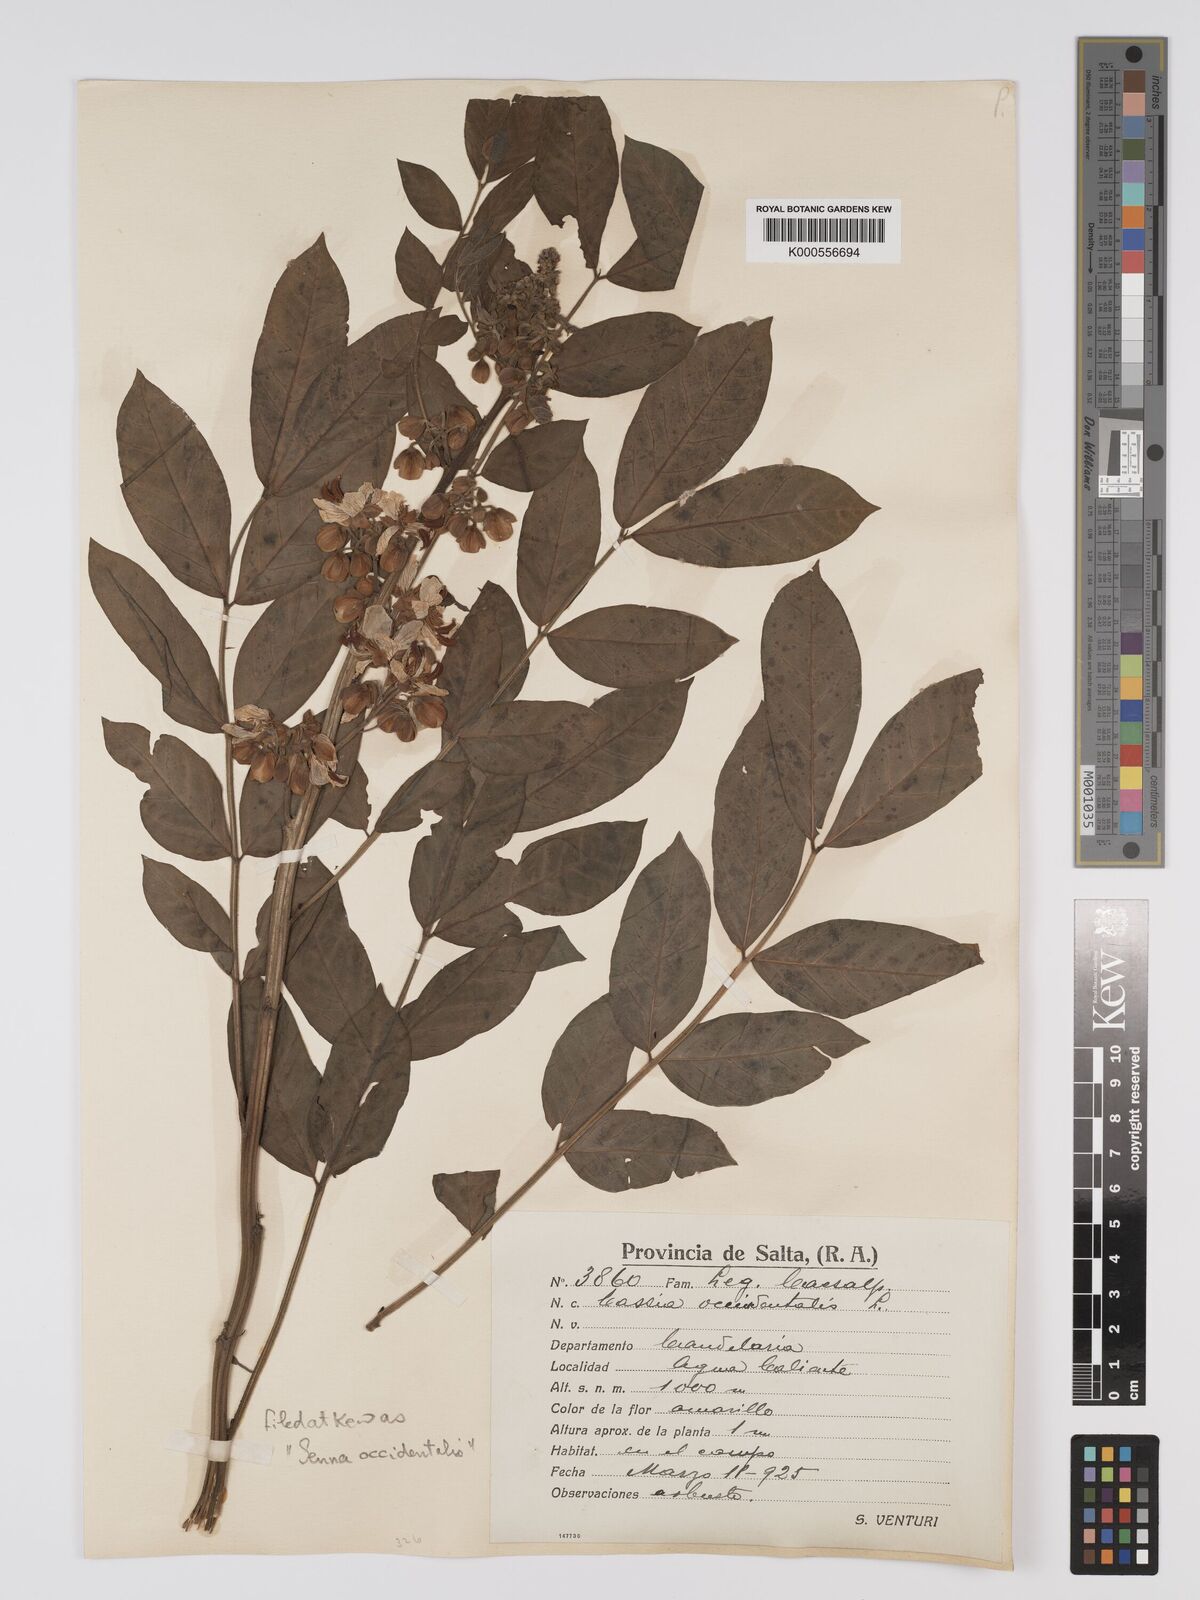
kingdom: Plantae
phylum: Tracheophyta
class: Magnoliopsida
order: Fabales
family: Fabaceae
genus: Senna
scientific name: Senna occidentalis
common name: Septicweed
